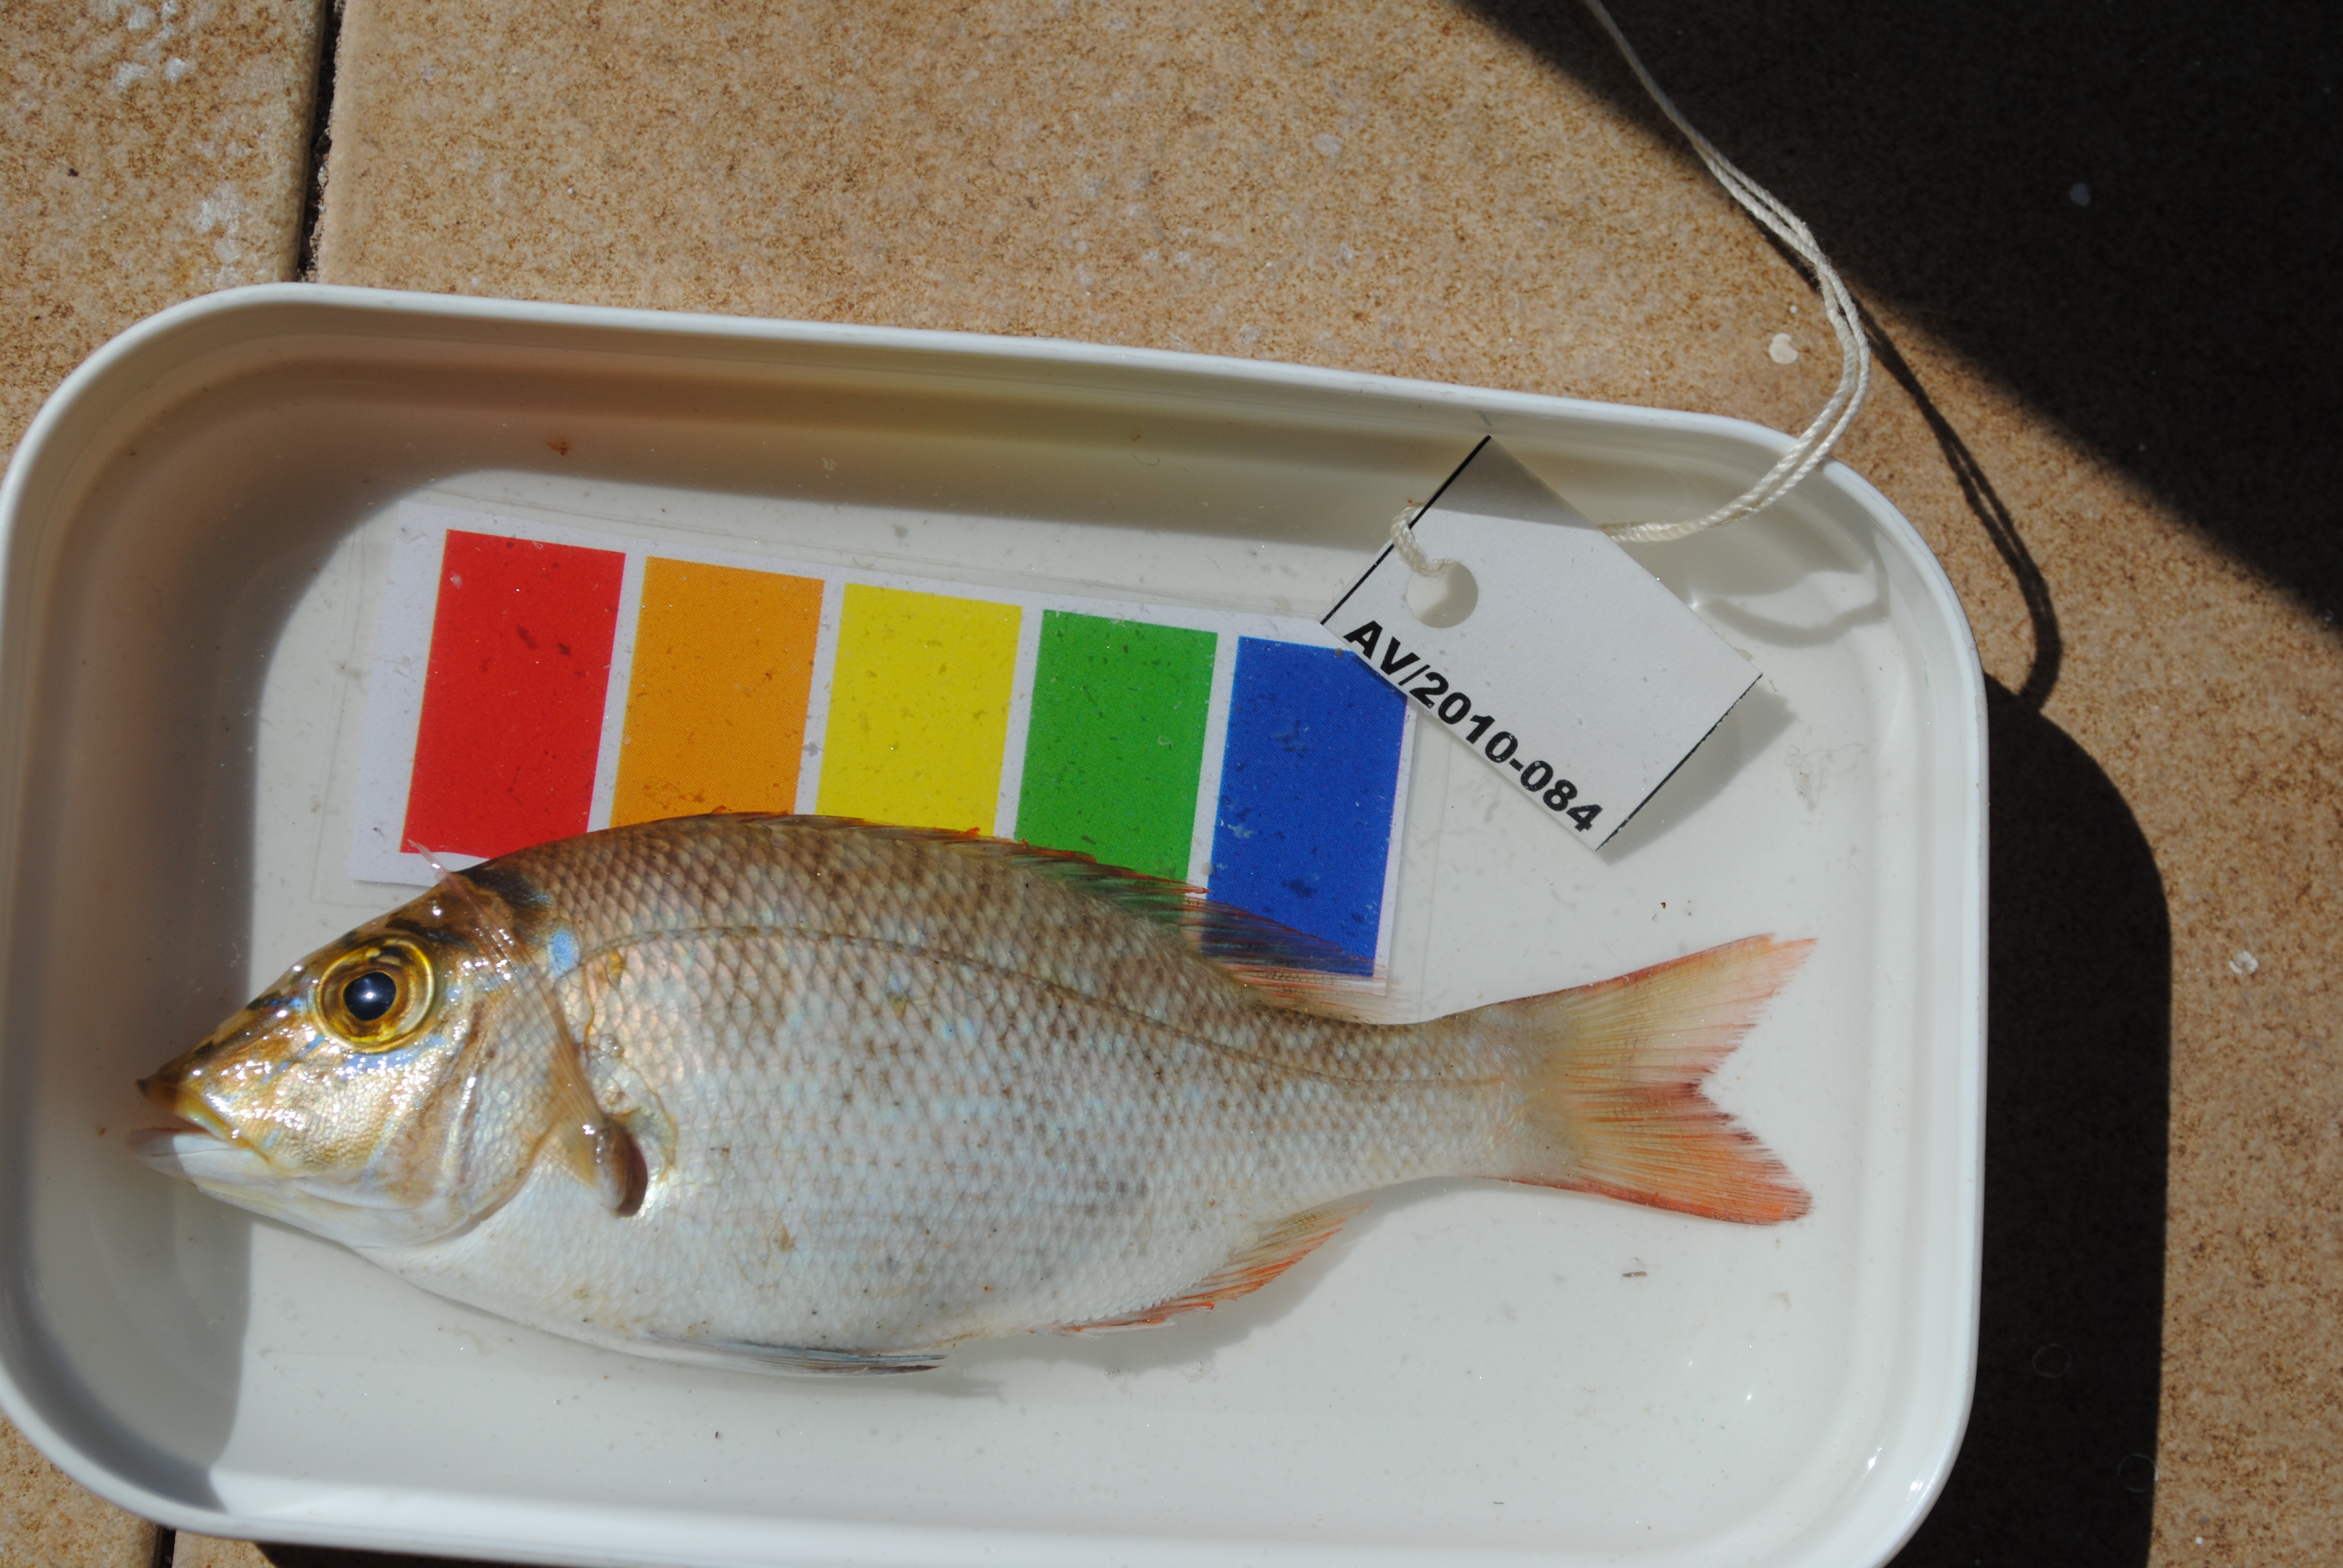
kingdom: Animalia
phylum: Chordata
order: Perciformes
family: Lethrinidae
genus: Lethrinus
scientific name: Lethrinus nebulosus
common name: Spangled emperor
